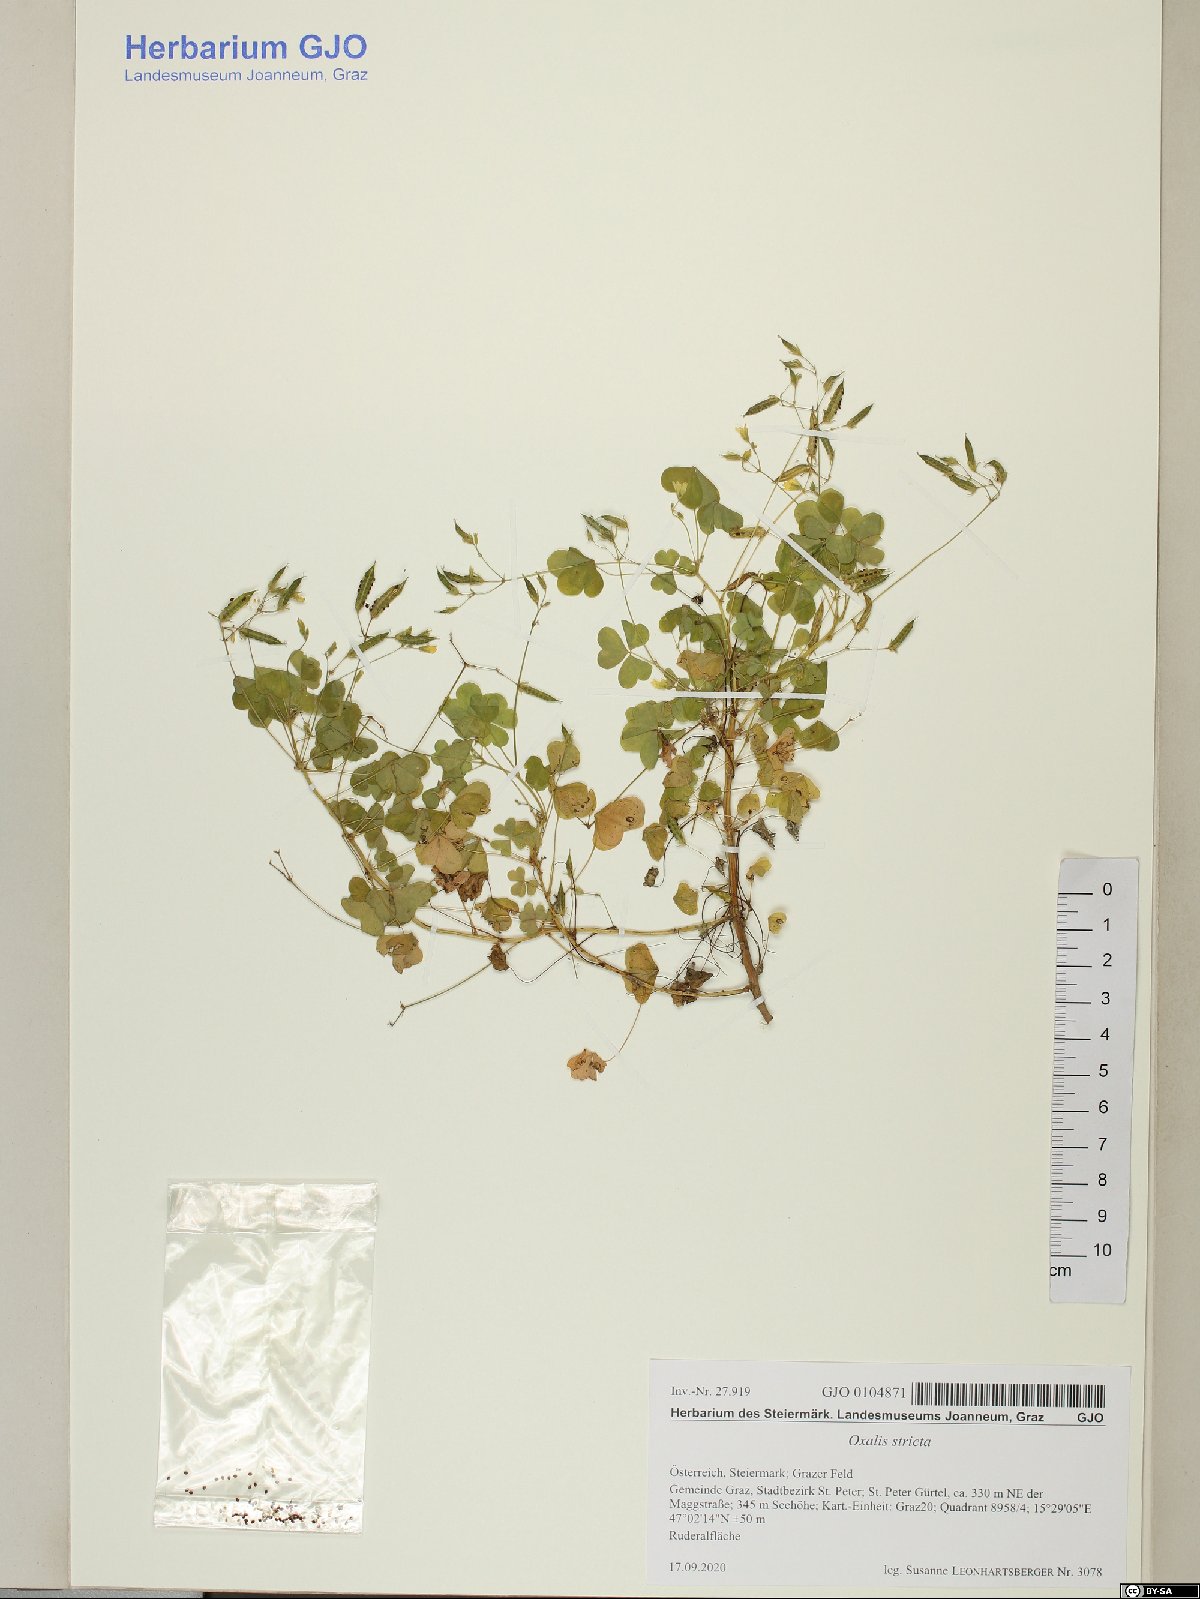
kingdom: Plantae
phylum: Tracheophyta
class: Magnoliopsida
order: Oxalidales
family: Oxalidaceae
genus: Oxalis
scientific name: Oxalis stricta
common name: Upright yellow-sorrel
